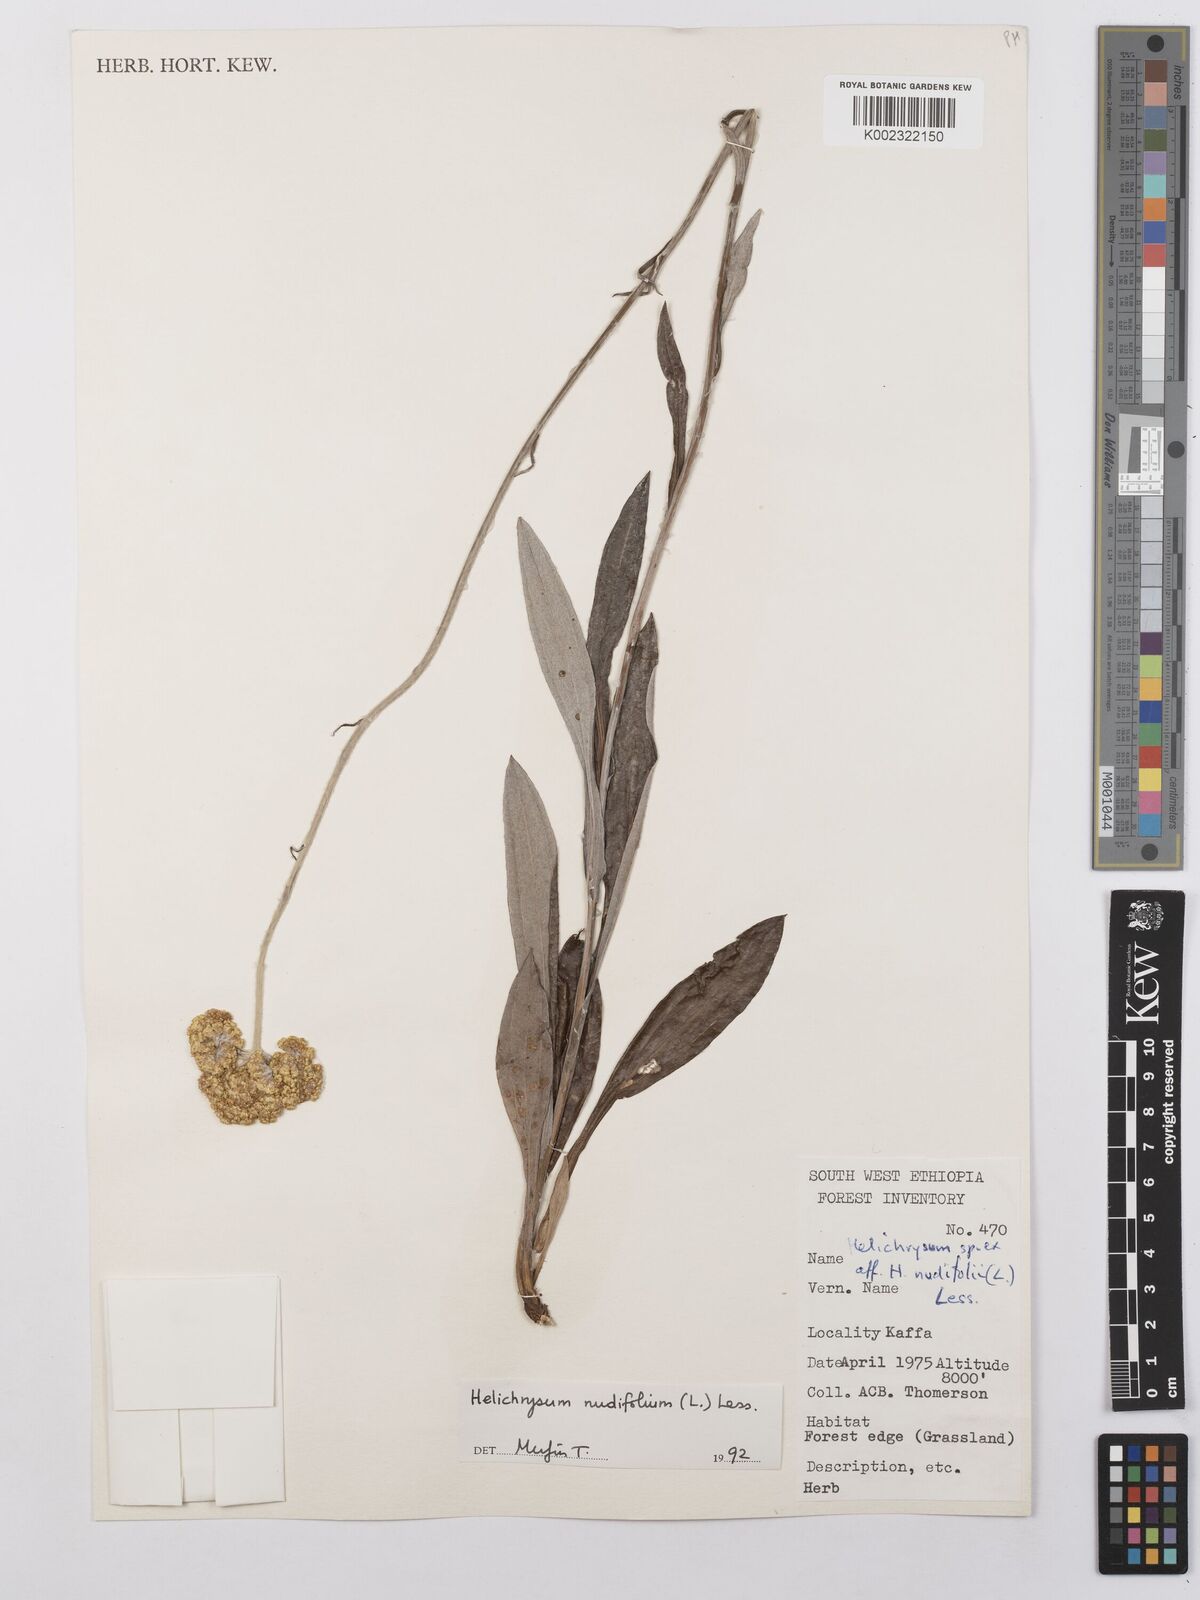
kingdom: Plantae
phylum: Tracheophyta
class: Magnoliopsida
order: Asterales
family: Asteraceae
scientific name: Asteraceae
